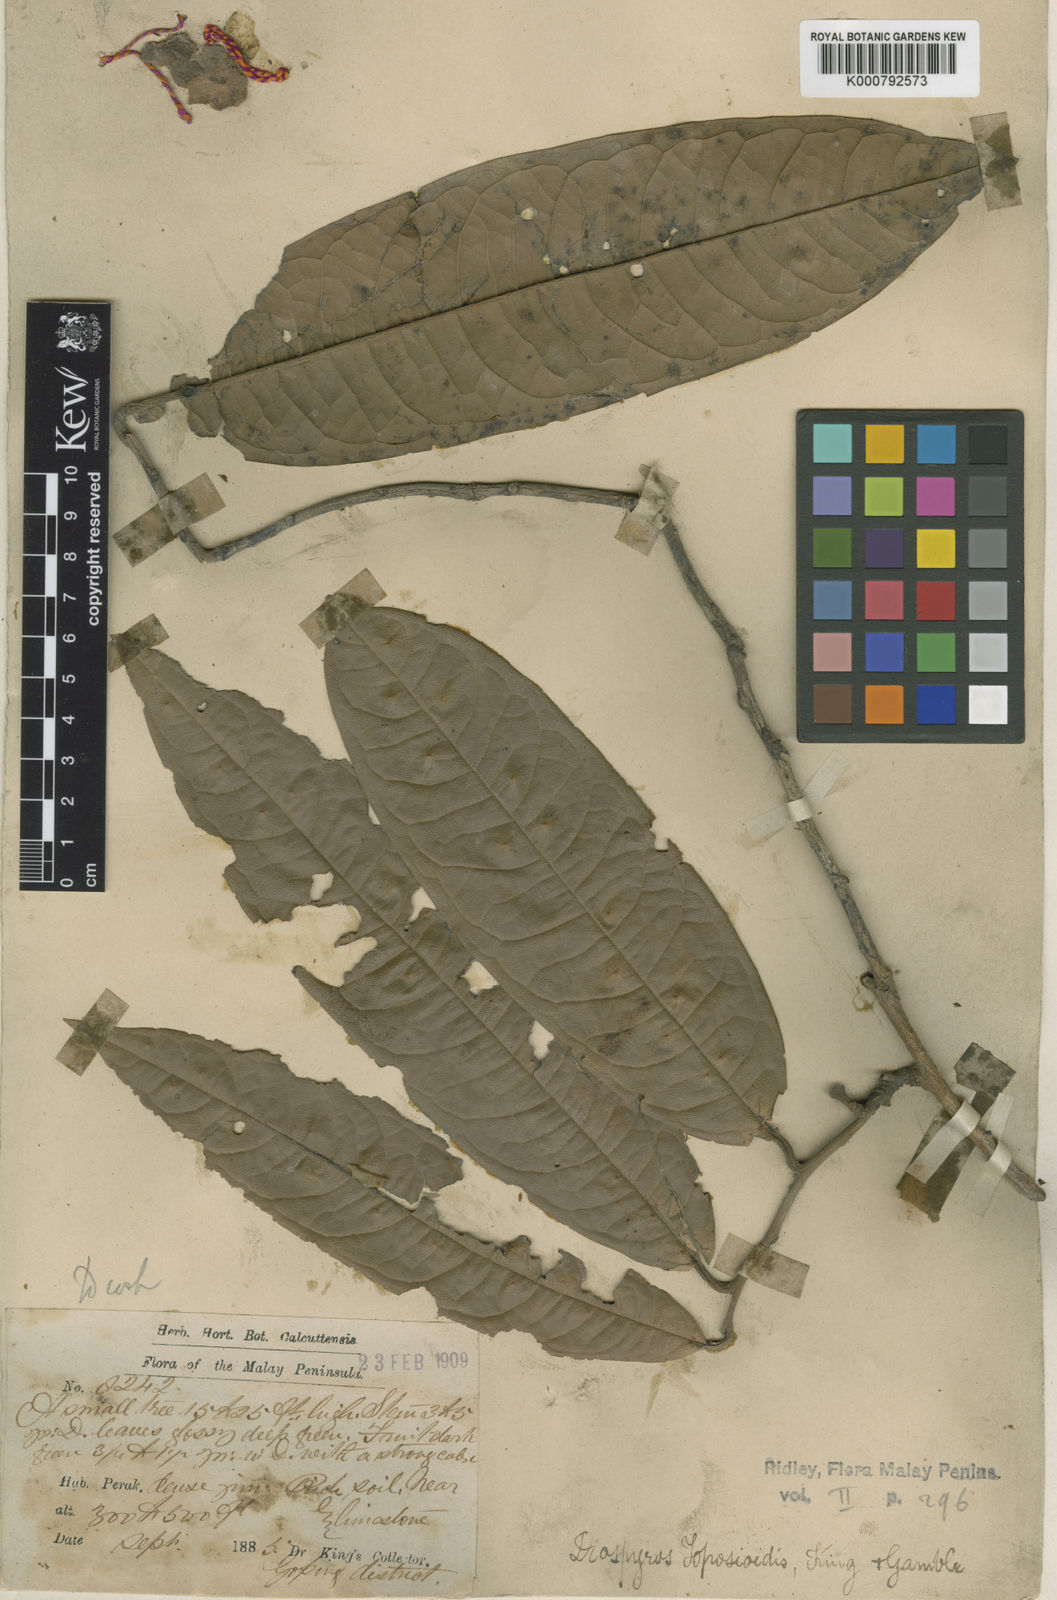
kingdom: Plantae
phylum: Tracheophyta
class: Magnoliopsida
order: Ericales
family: Ebenaceae
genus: Diospyros
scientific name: Diospyros toposia
